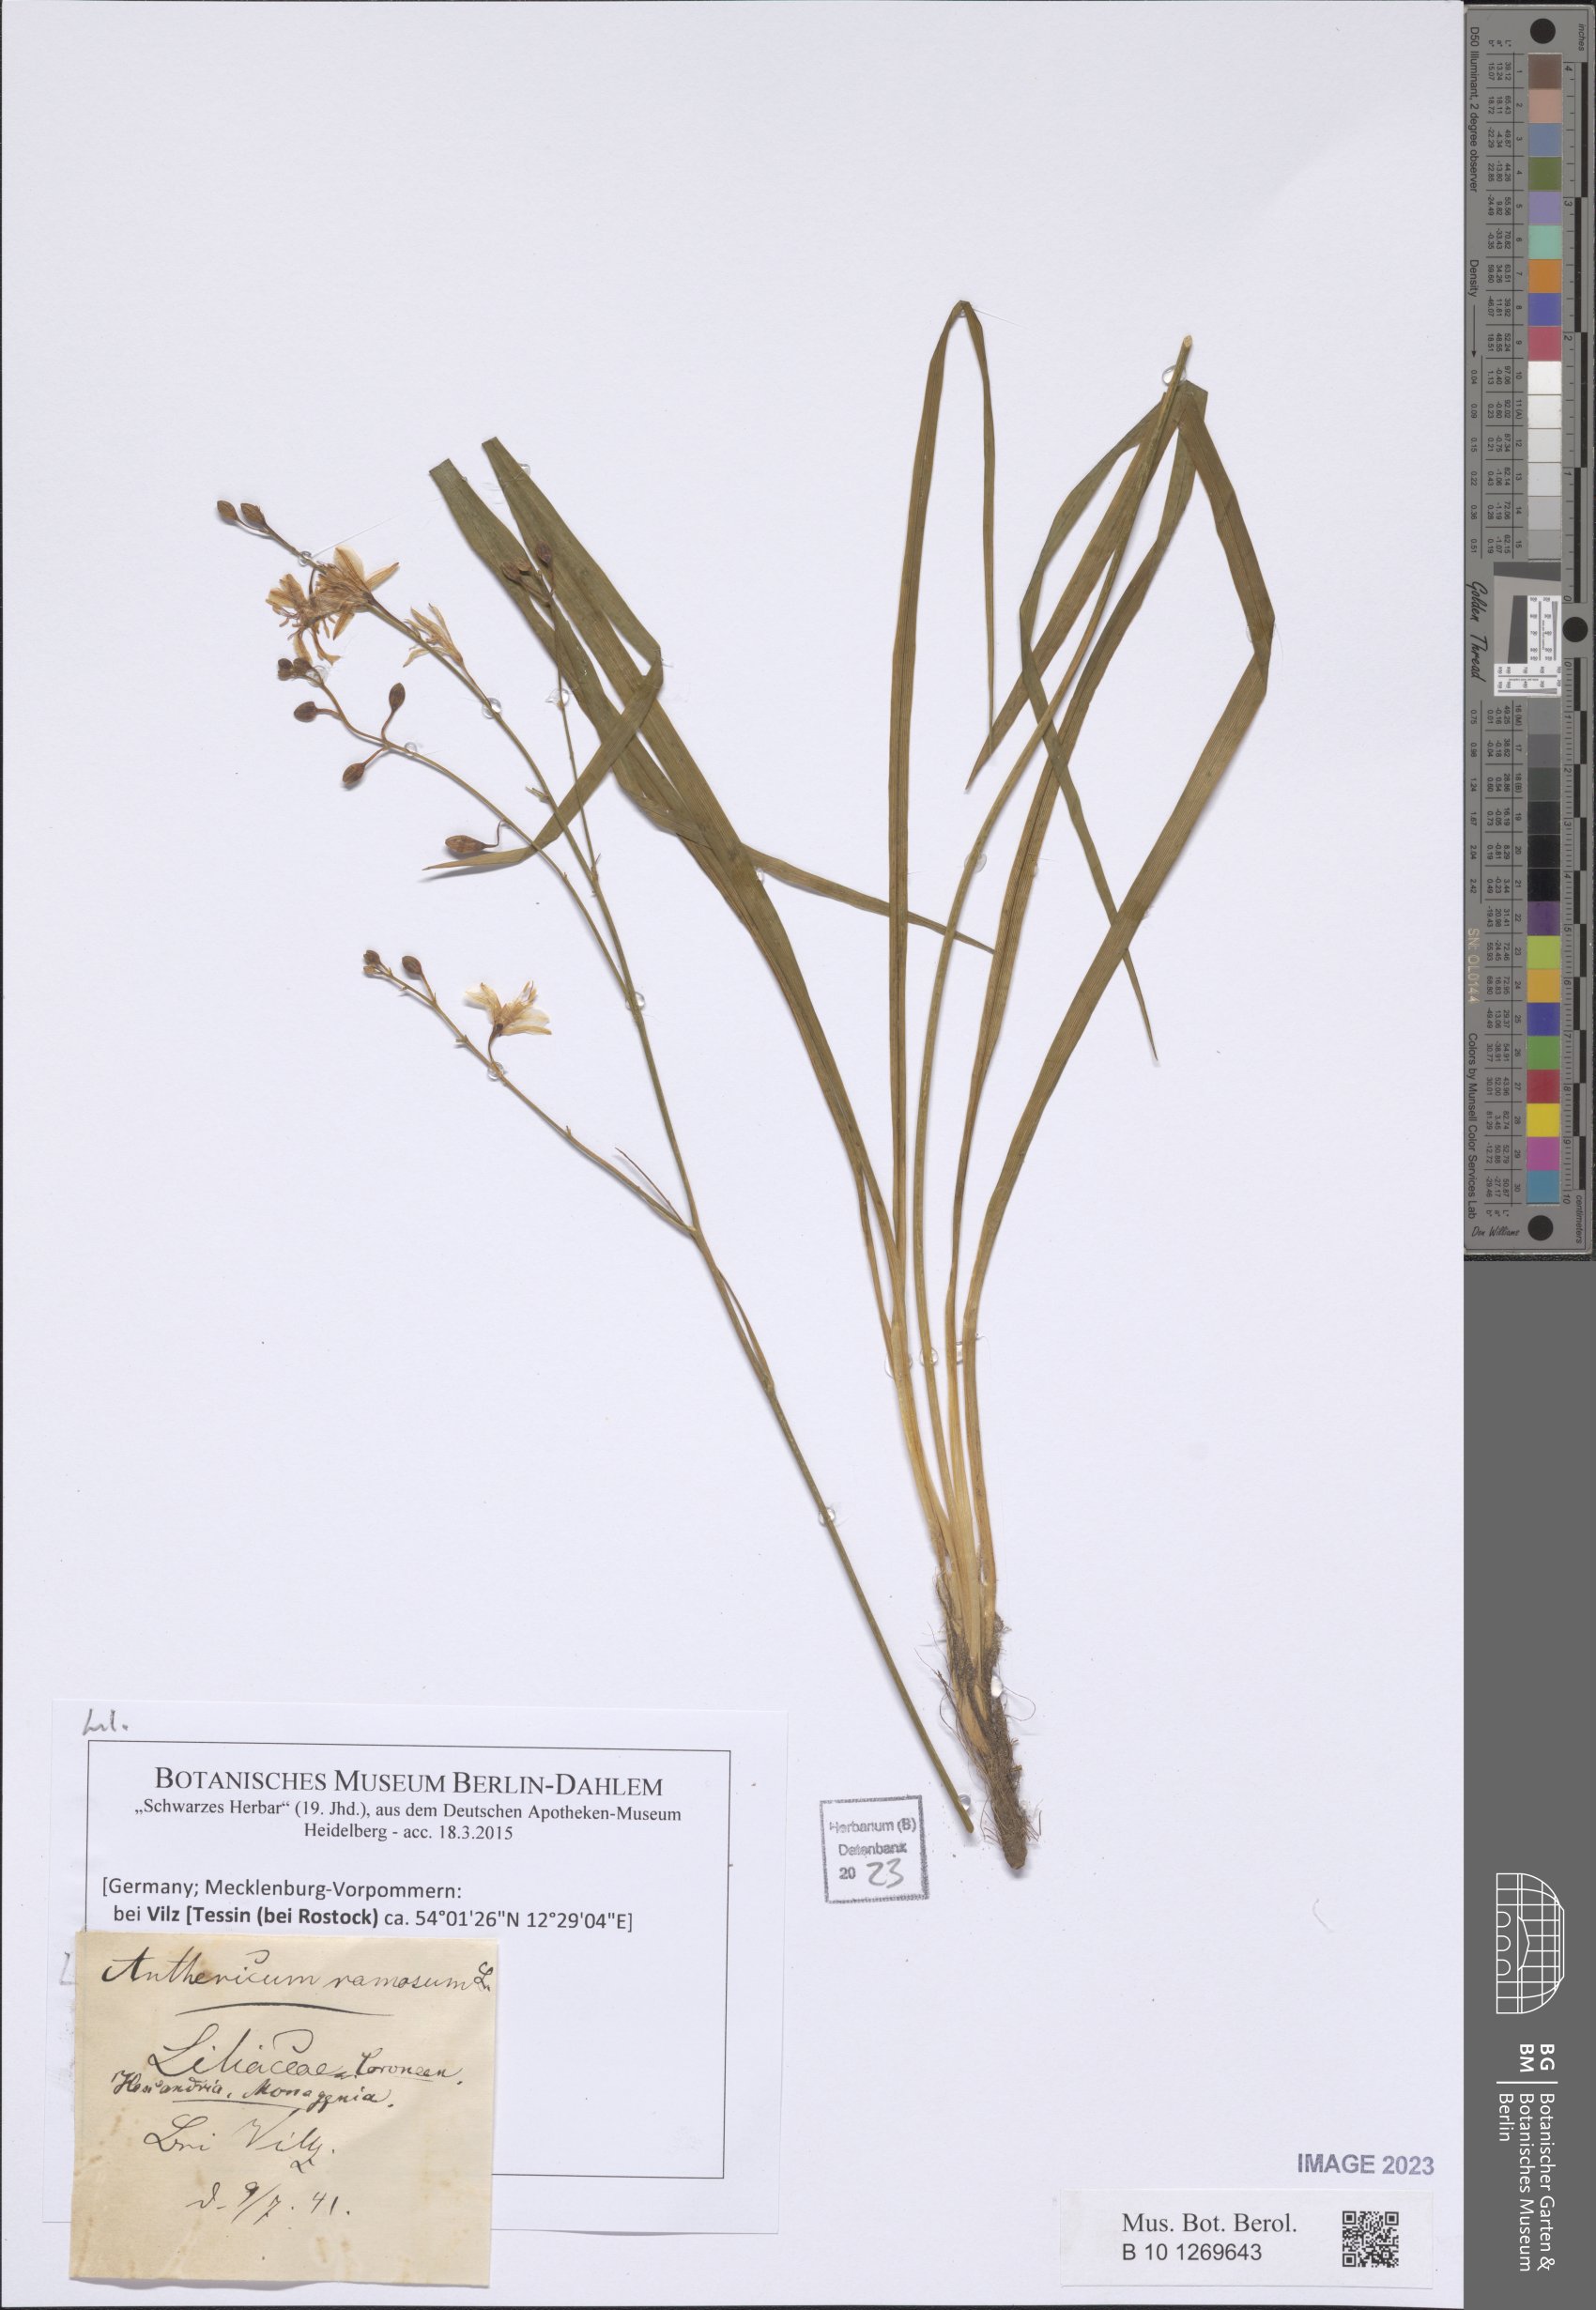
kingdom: Plantae
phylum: Tracheophyta
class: Liliopsida
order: Asparagales
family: Asparagaceae
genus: Anthericum
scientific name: Anthericum ramosum
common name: Branched st. bernard's-lily
